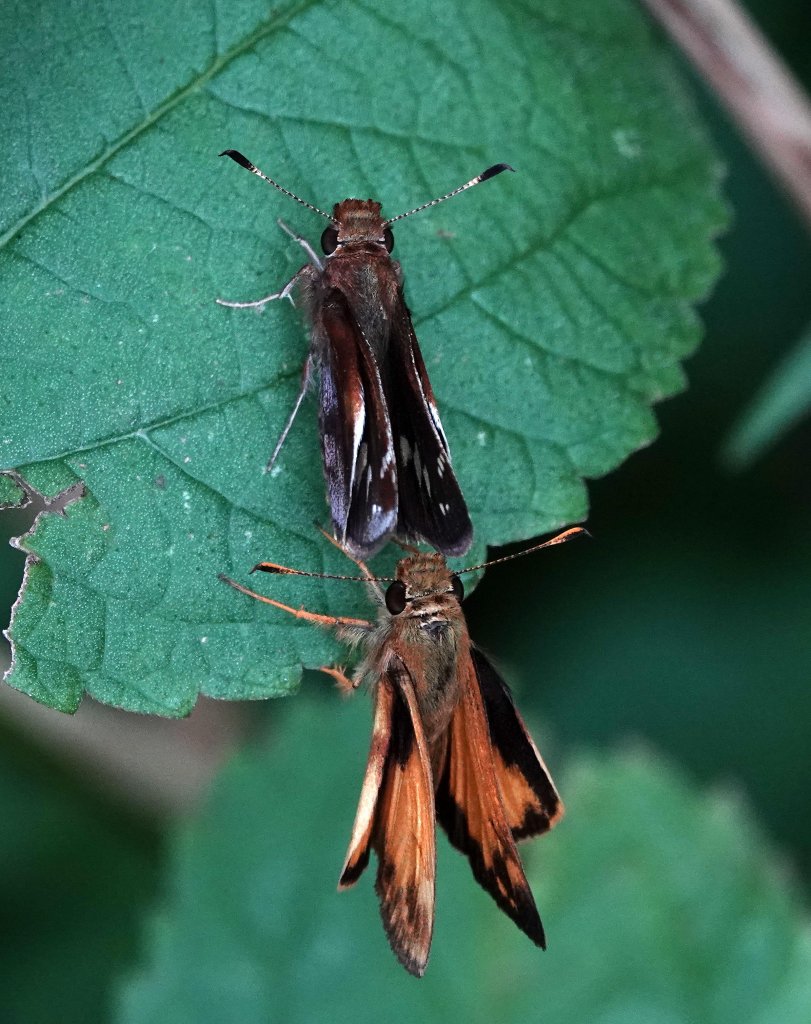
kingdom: Animalia
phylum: Arthropoda
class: Insecta
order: Lepidoptera
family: Hesperiidae
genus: Lon
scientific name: Lon zabulon
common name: Zabulon Skipper
